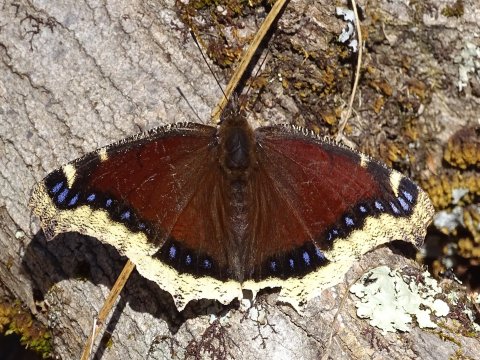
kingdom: Animalia
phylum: Arthropoda
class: Insecta
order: Lepidoptera
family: Nymphalidae
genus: Nymphalis
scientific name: Nymphalis antiopa
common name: Mourning Cloak
